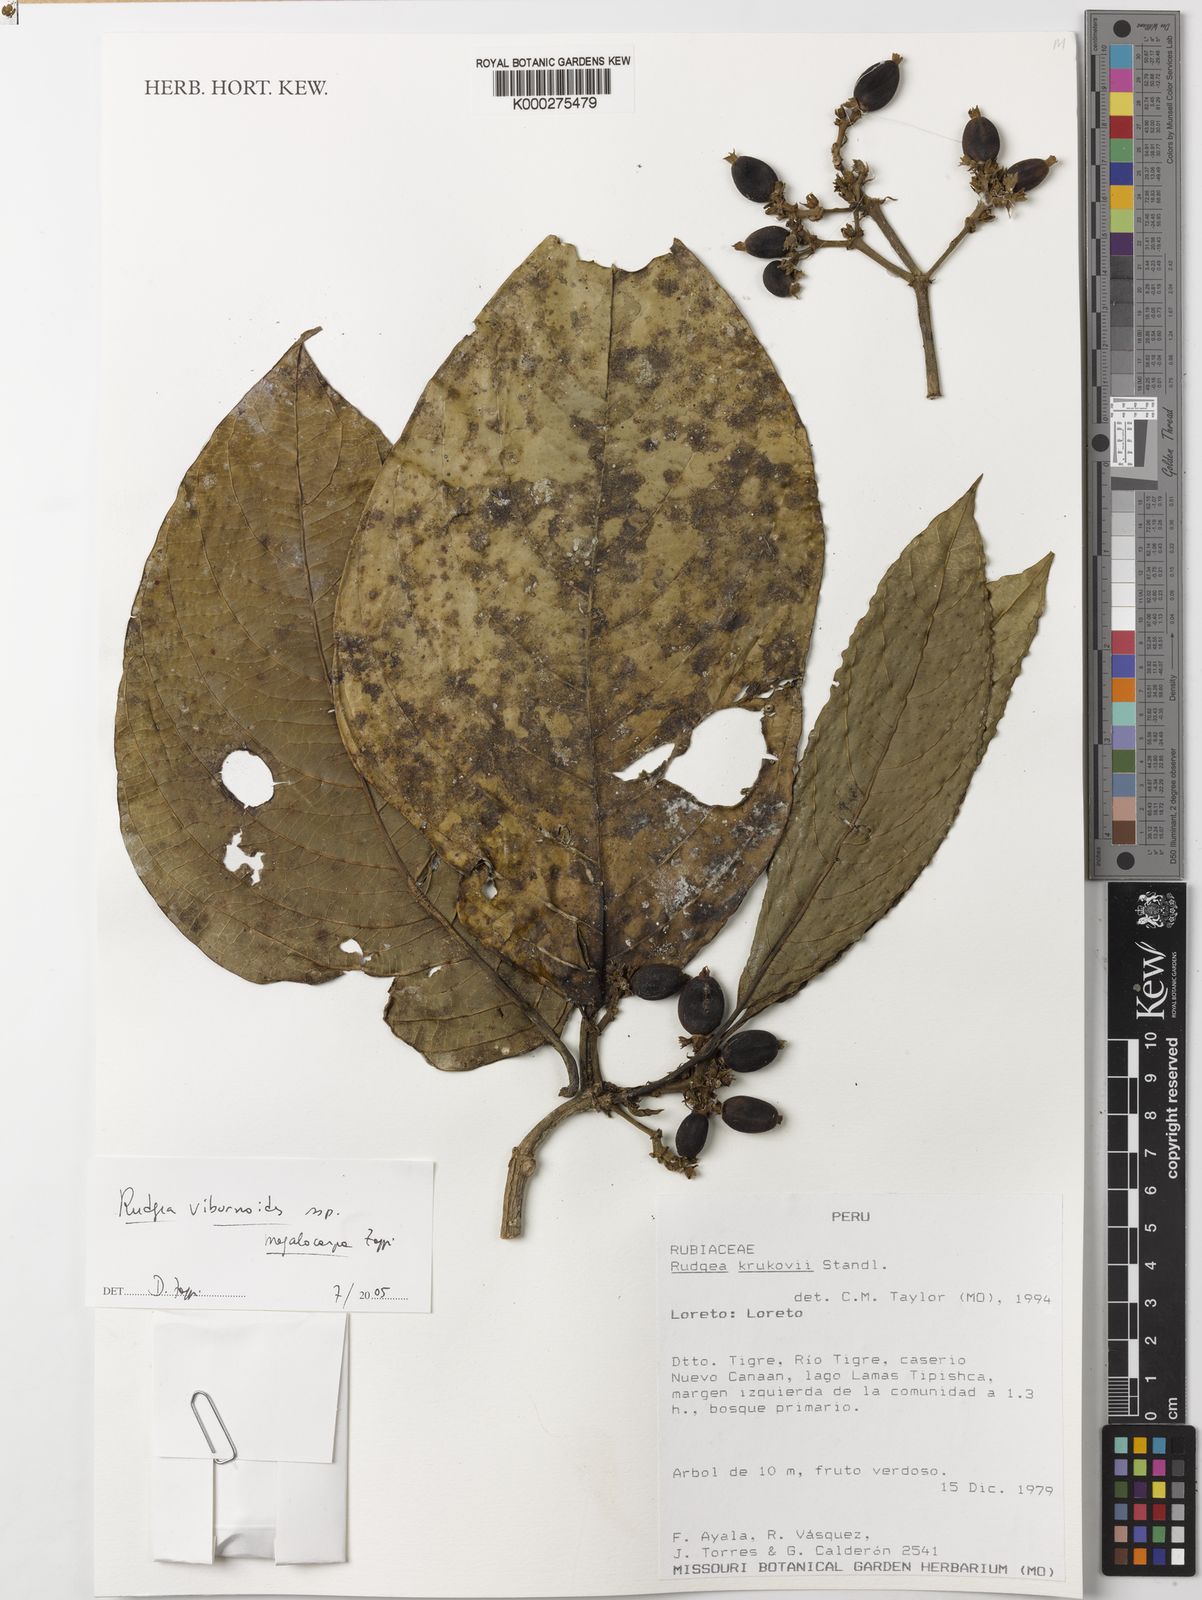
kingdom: Plantae
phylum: Tracheophyta
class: Magnoliopsida
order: Gentianales
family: Rubiaceae
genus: Rudgea
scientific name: Rudgea viburnoides
